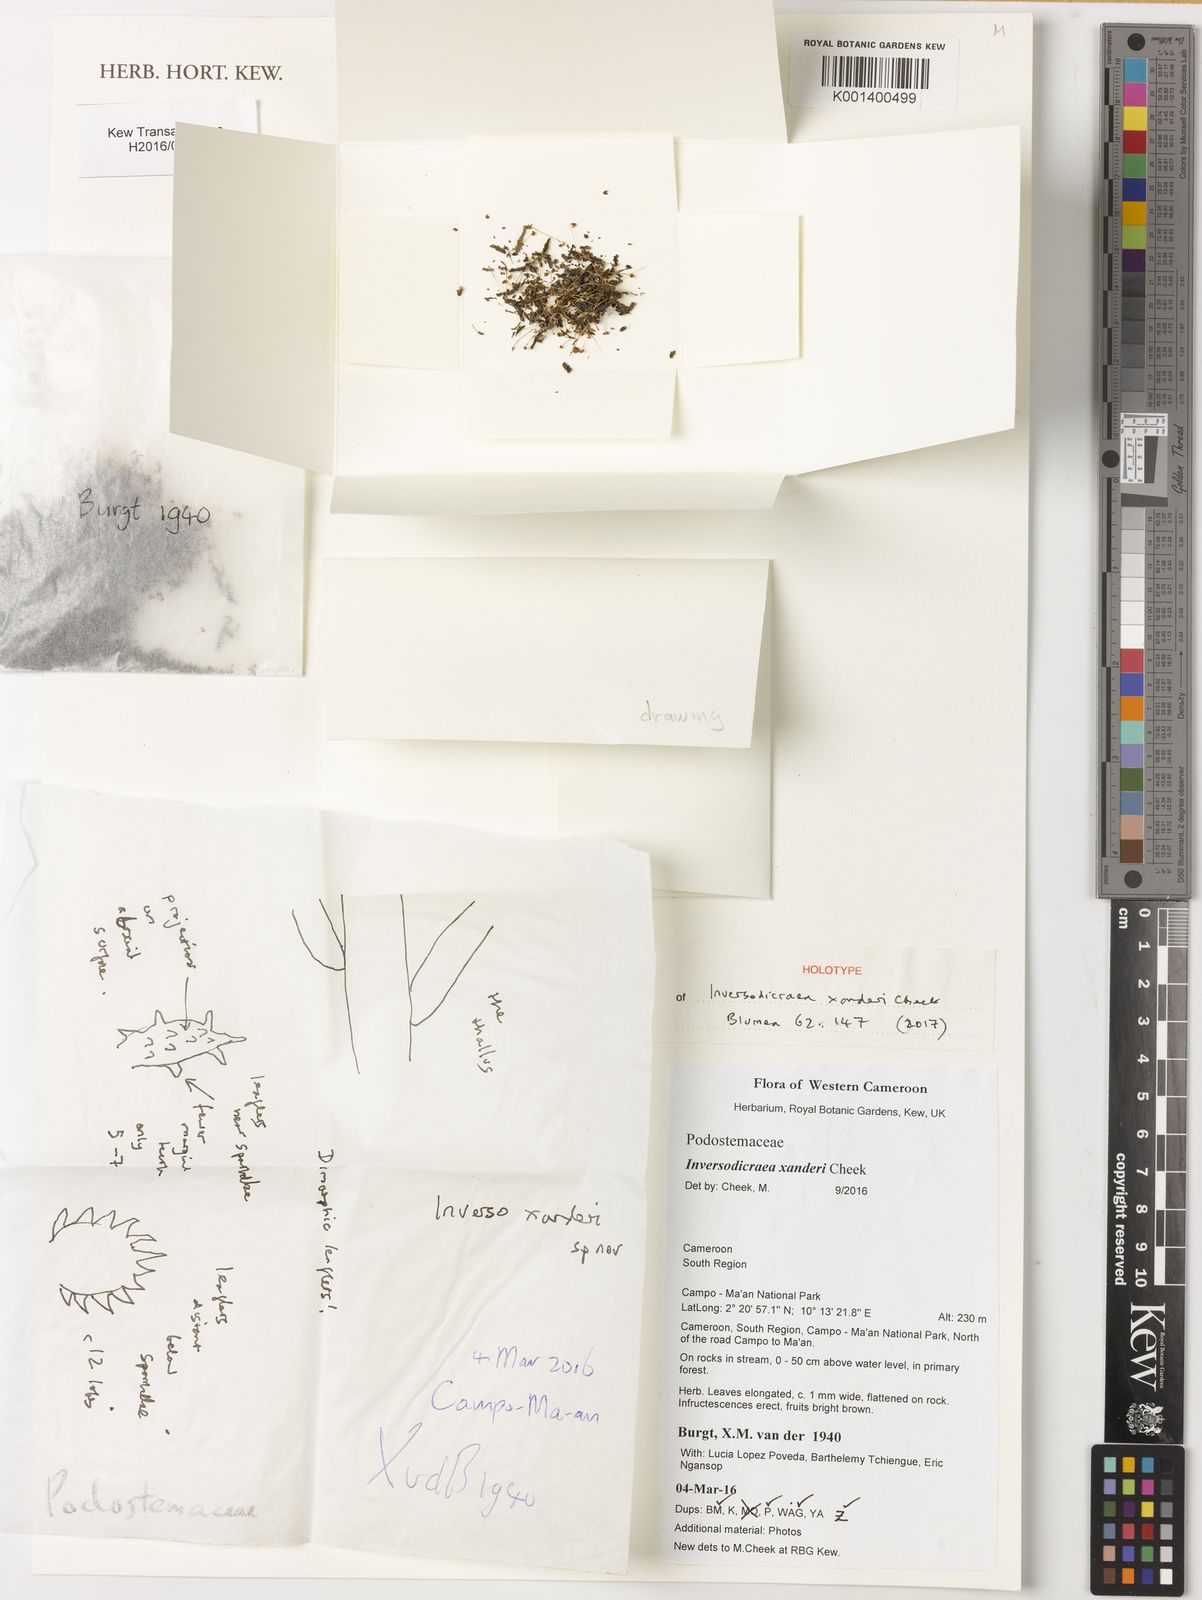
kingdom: Plantae
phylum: Tracheophyta
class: Magnoliopsida
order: Malpighiales
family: Podostemaceae
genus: Inversodicraea
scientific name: Inversodicraea xanderi
